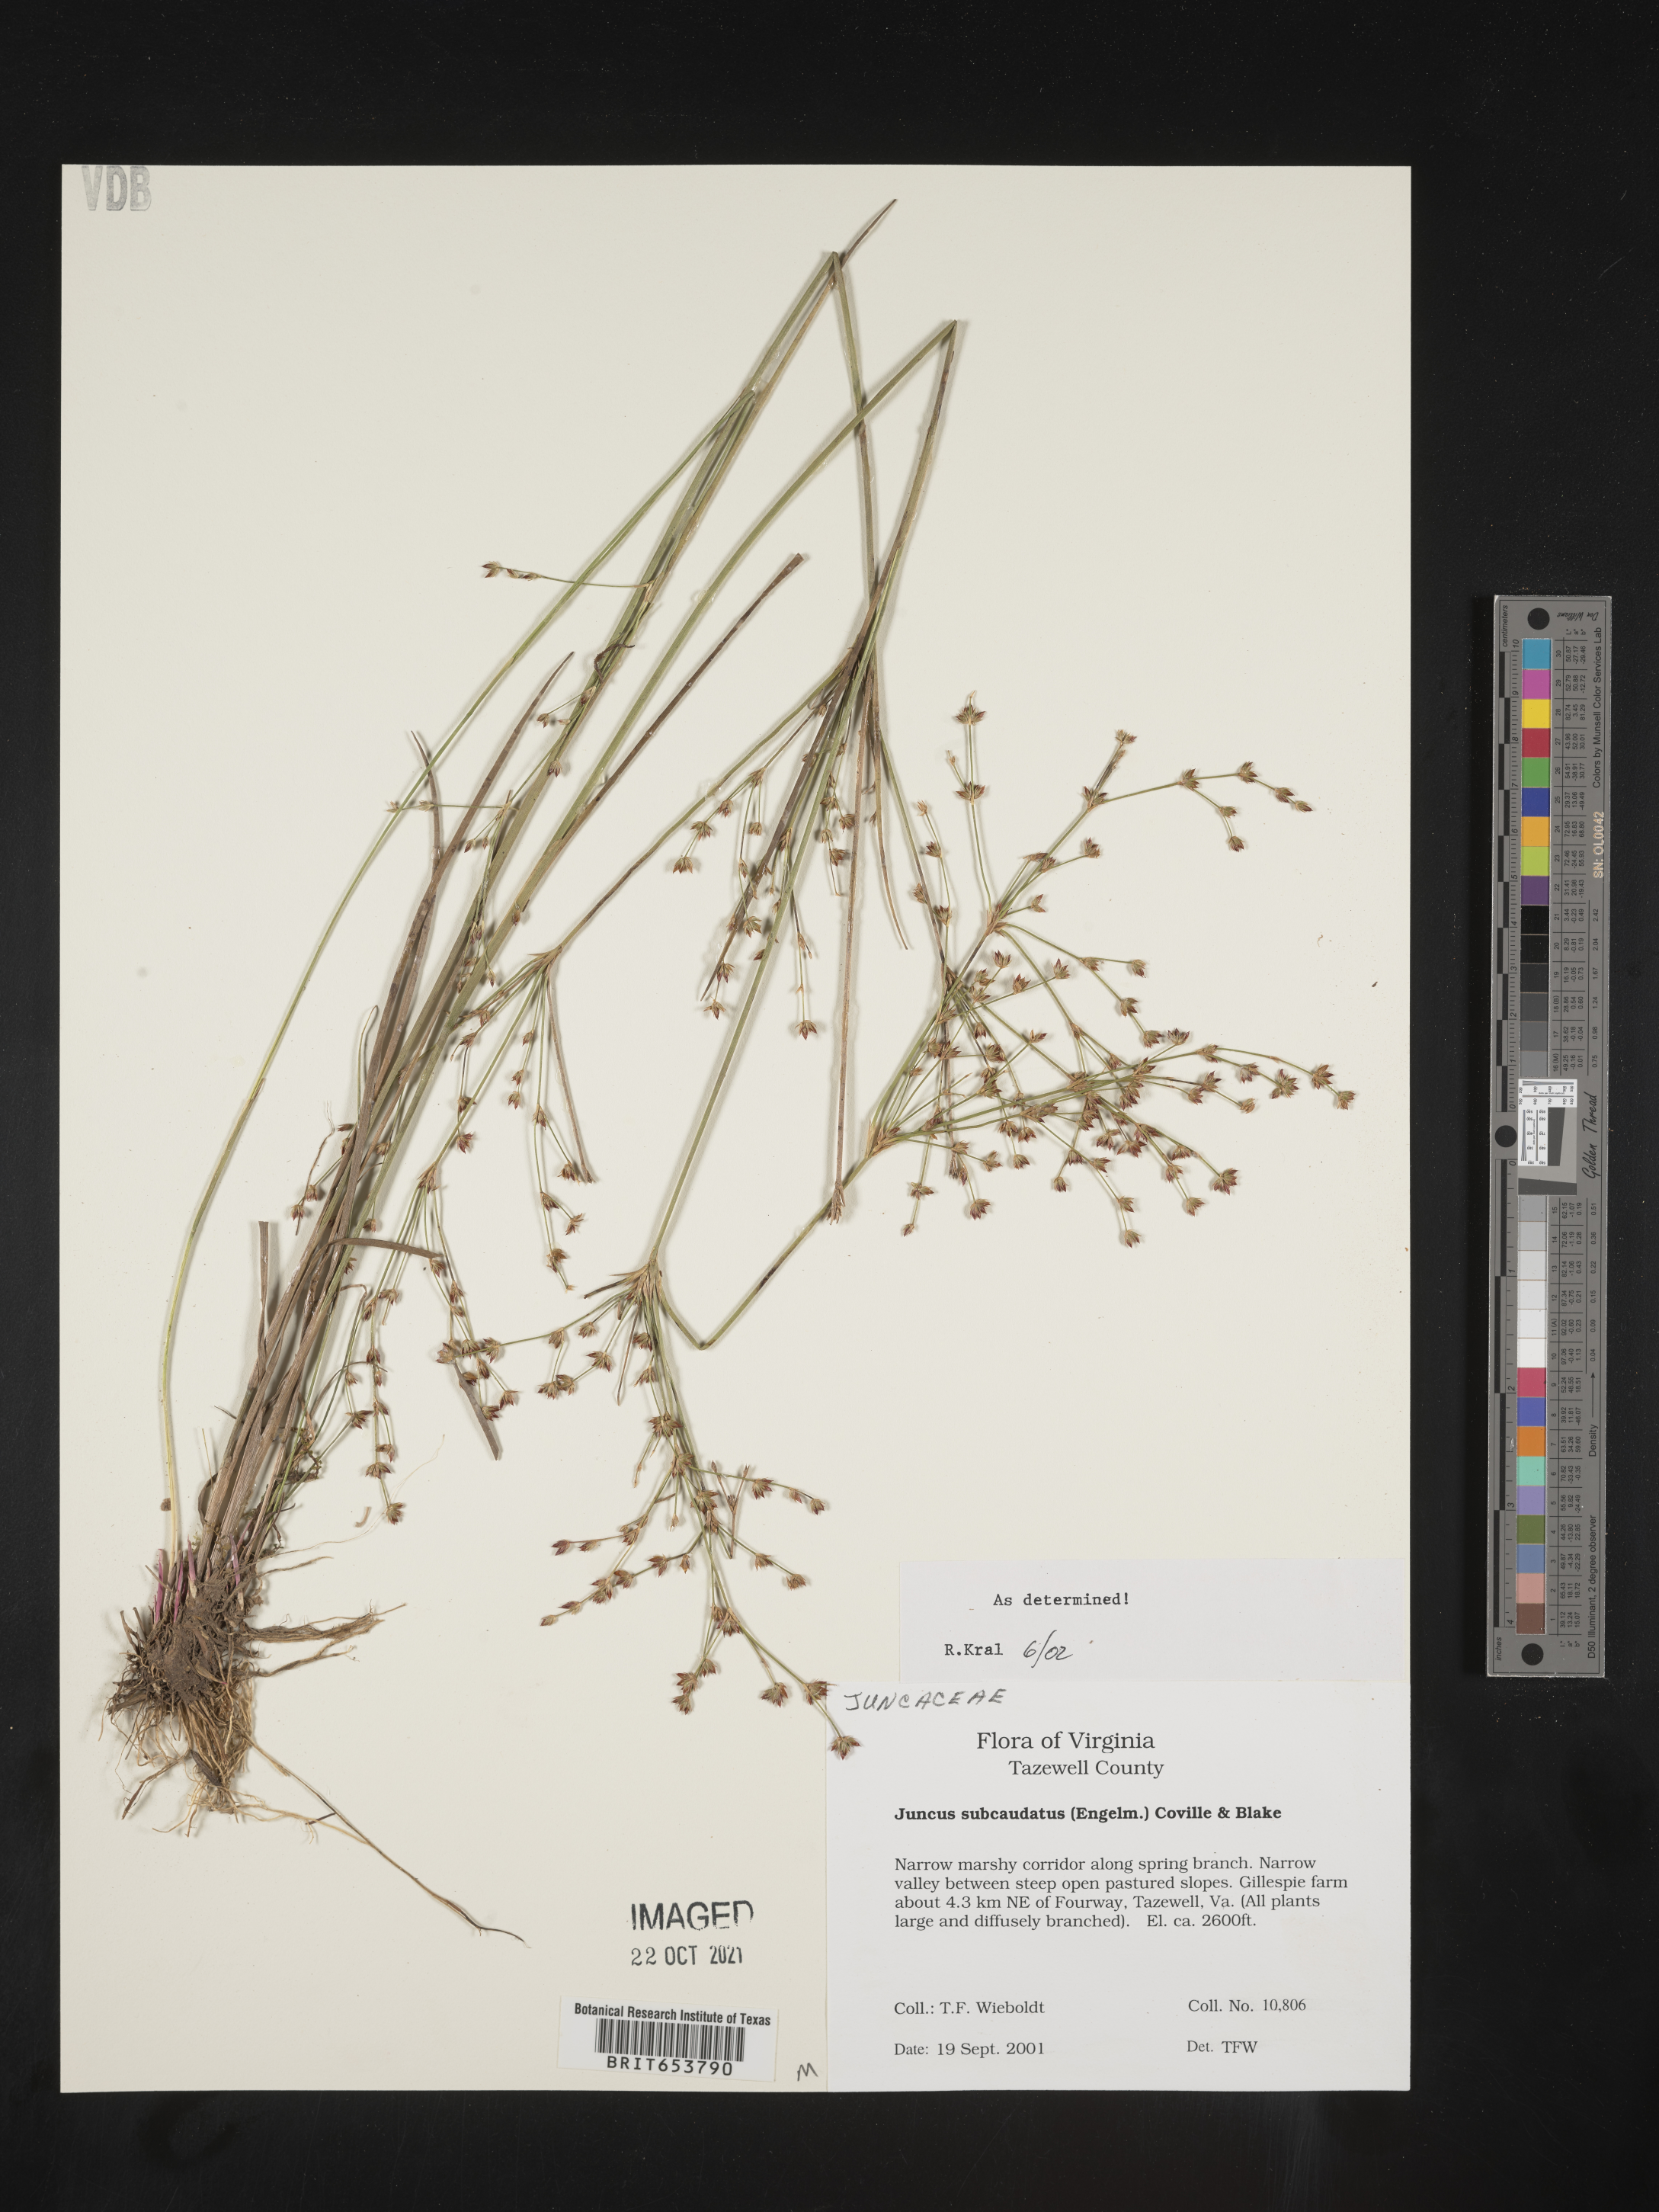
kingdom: Plantae
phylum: Tracheophyta
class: Liliopsida
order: Poales
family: Juncaceae
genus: Juncus
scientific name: Juncus subcaudatus
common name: Engelmann's rush
